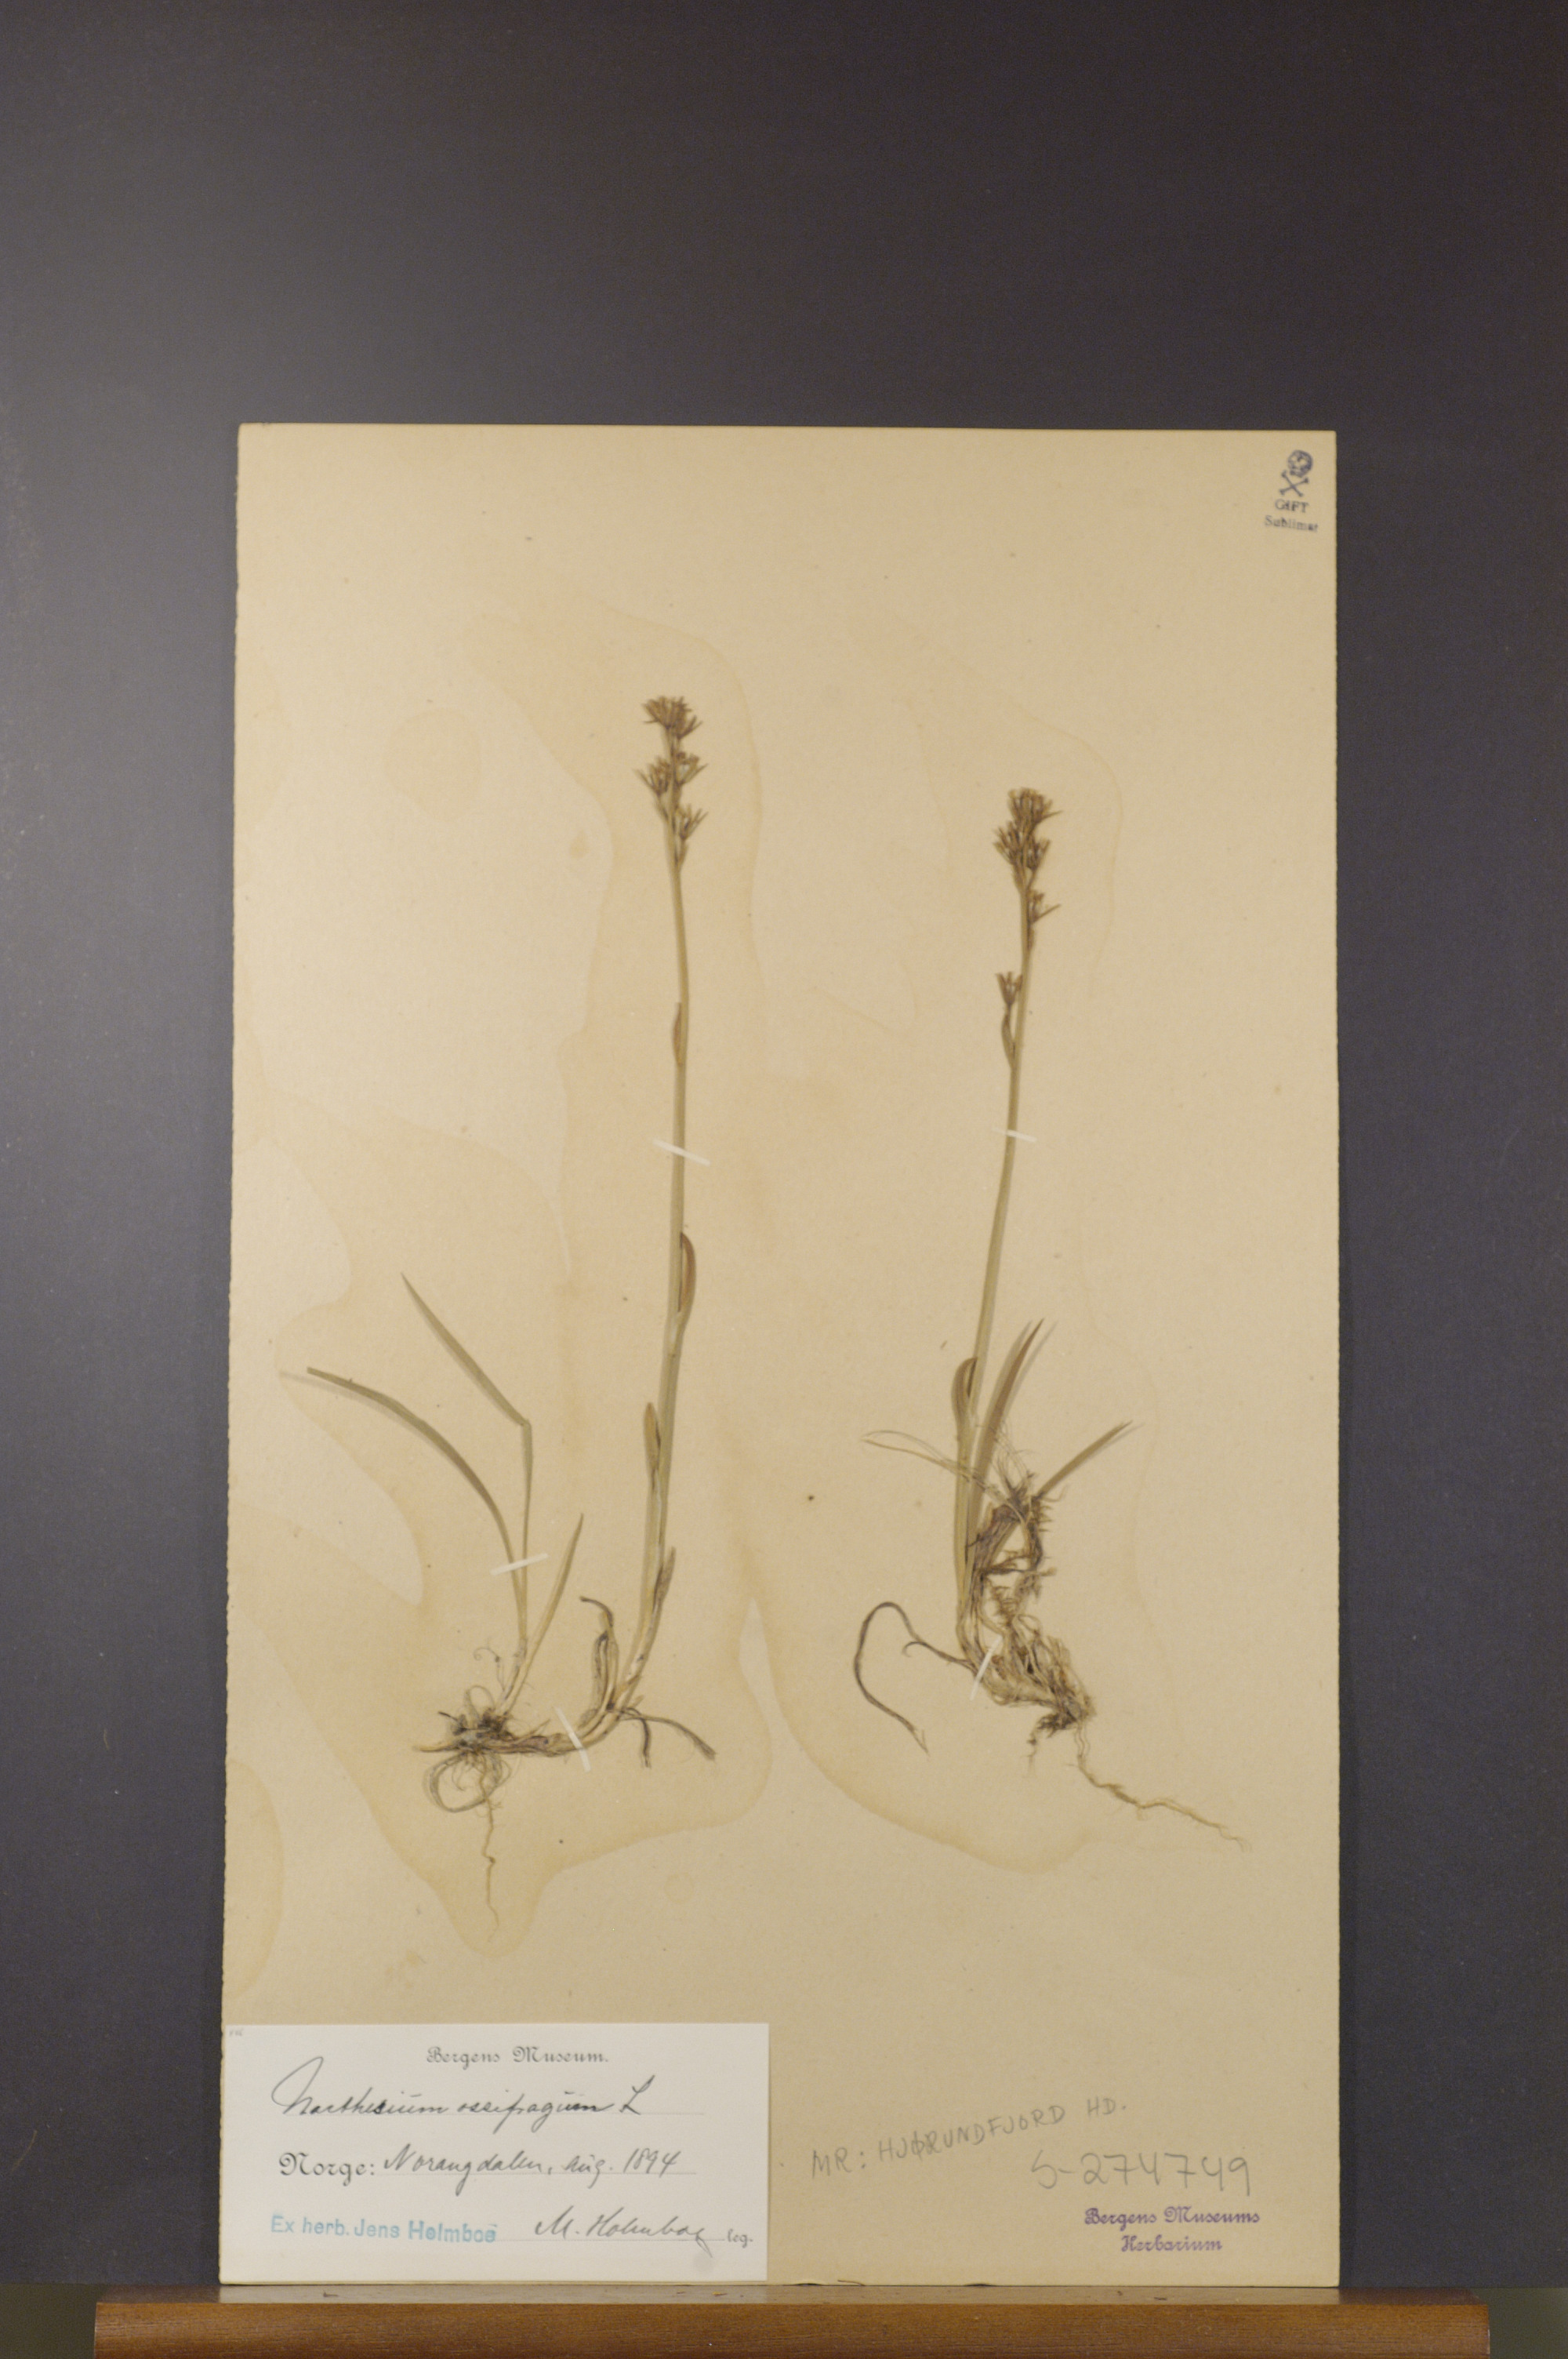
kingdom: Plantae
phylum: Tracheophyta
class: Liliopsida
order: Dioscoreales
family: Nartheciaceae
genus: Narthecium
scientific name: Narthecium ossifragum
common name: Bog asphodel
